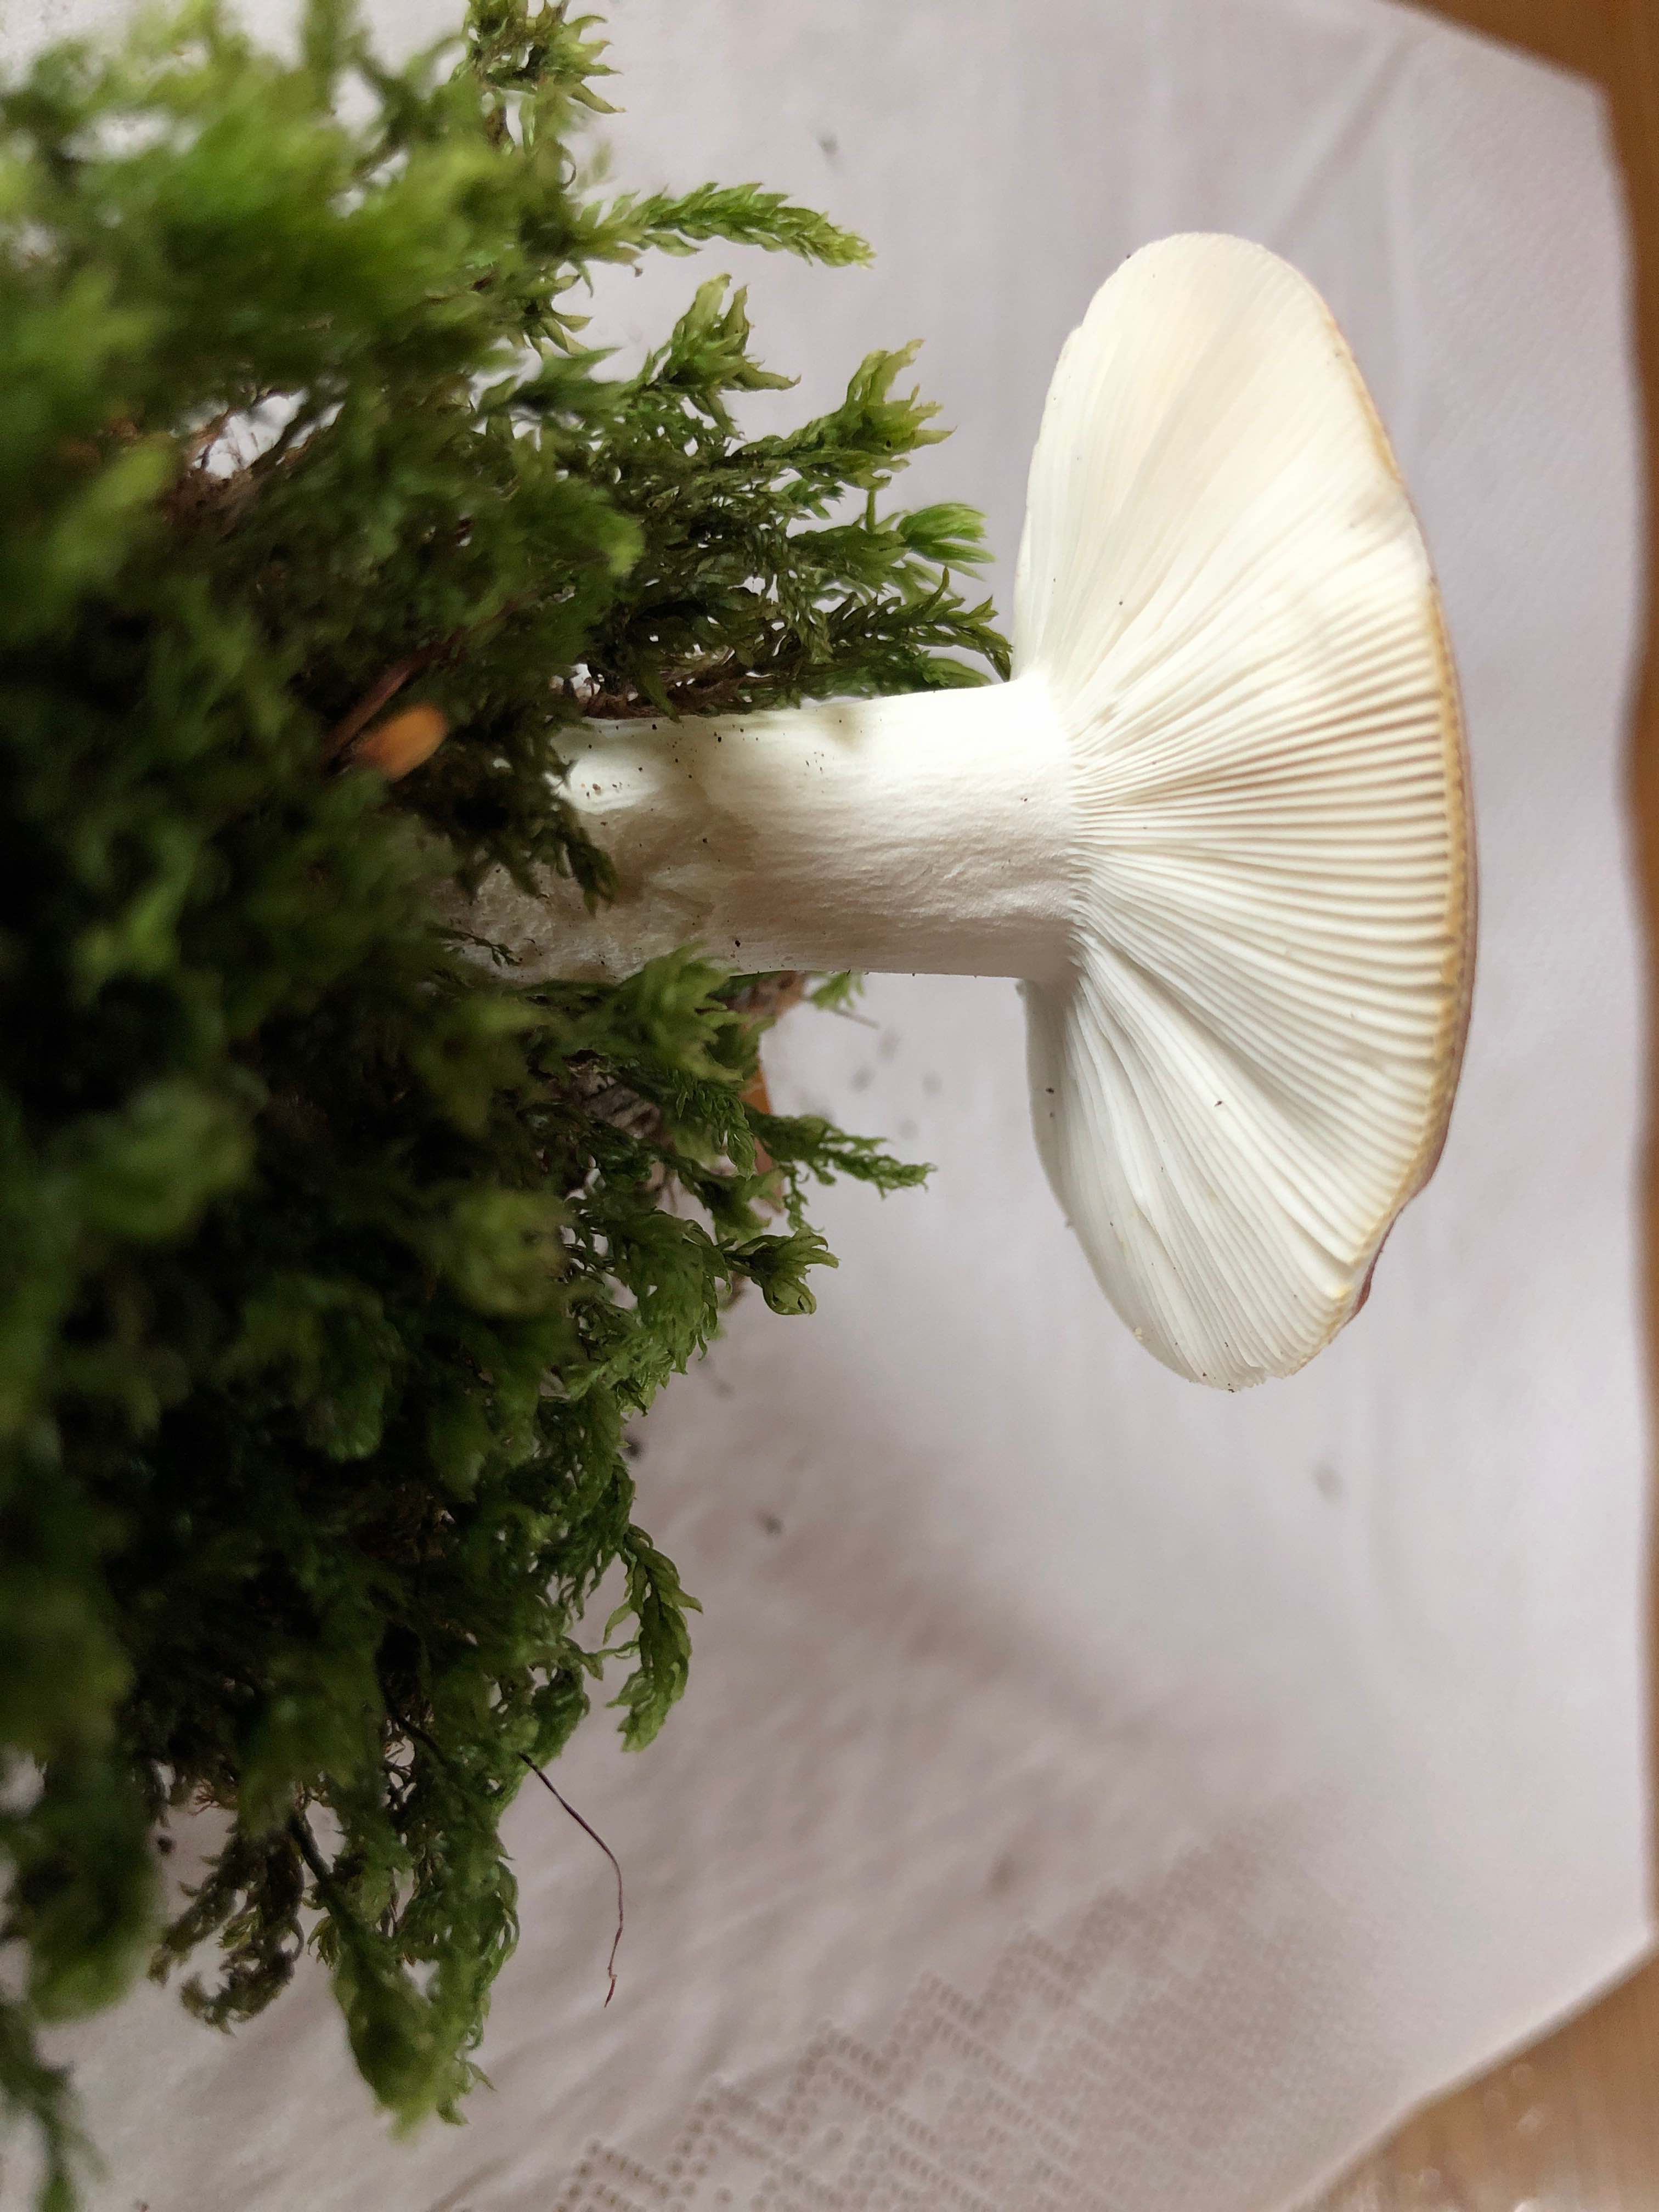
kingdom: Fungi
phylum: Basidiomycota
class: Agaricomycetes
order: Russulales
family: Russulaceae
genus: Russula
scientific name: Russula vesca
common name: spiselig skørhat
